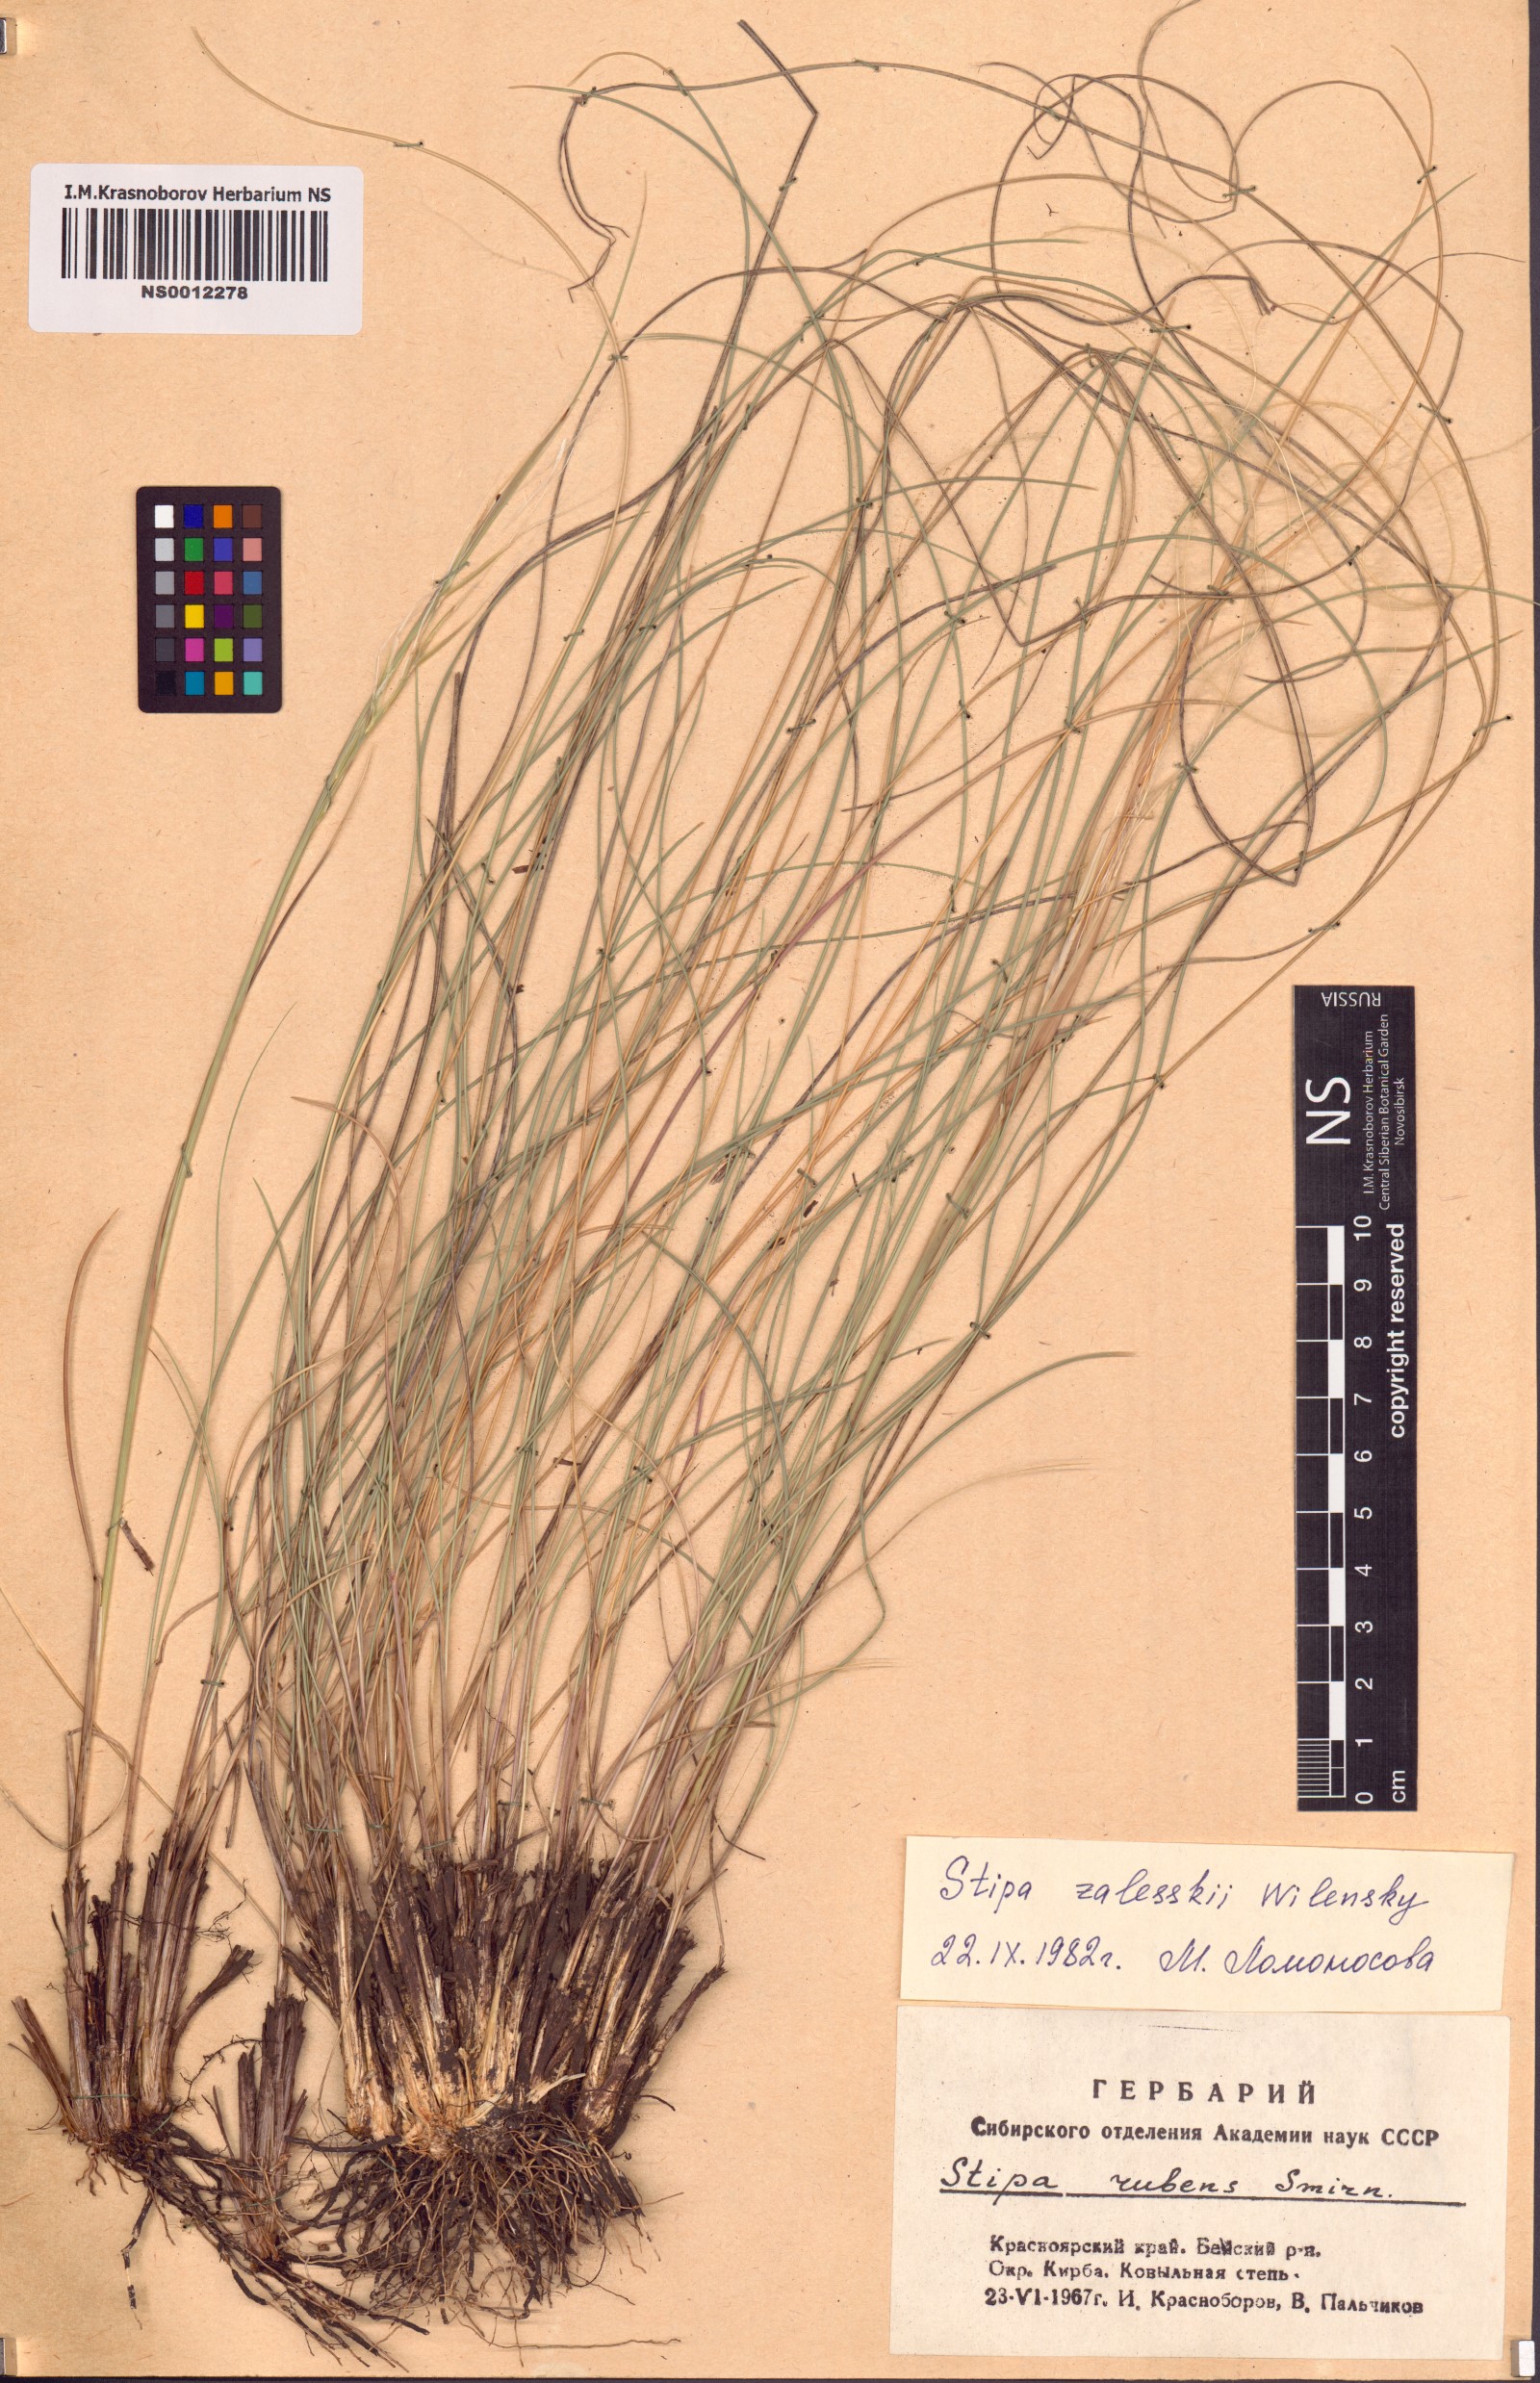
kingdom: Plantae
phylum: Tracheophyta
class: Liliopsida
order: Poales
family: Poaceae
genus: Stipa
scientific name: Stipa zalesskii
